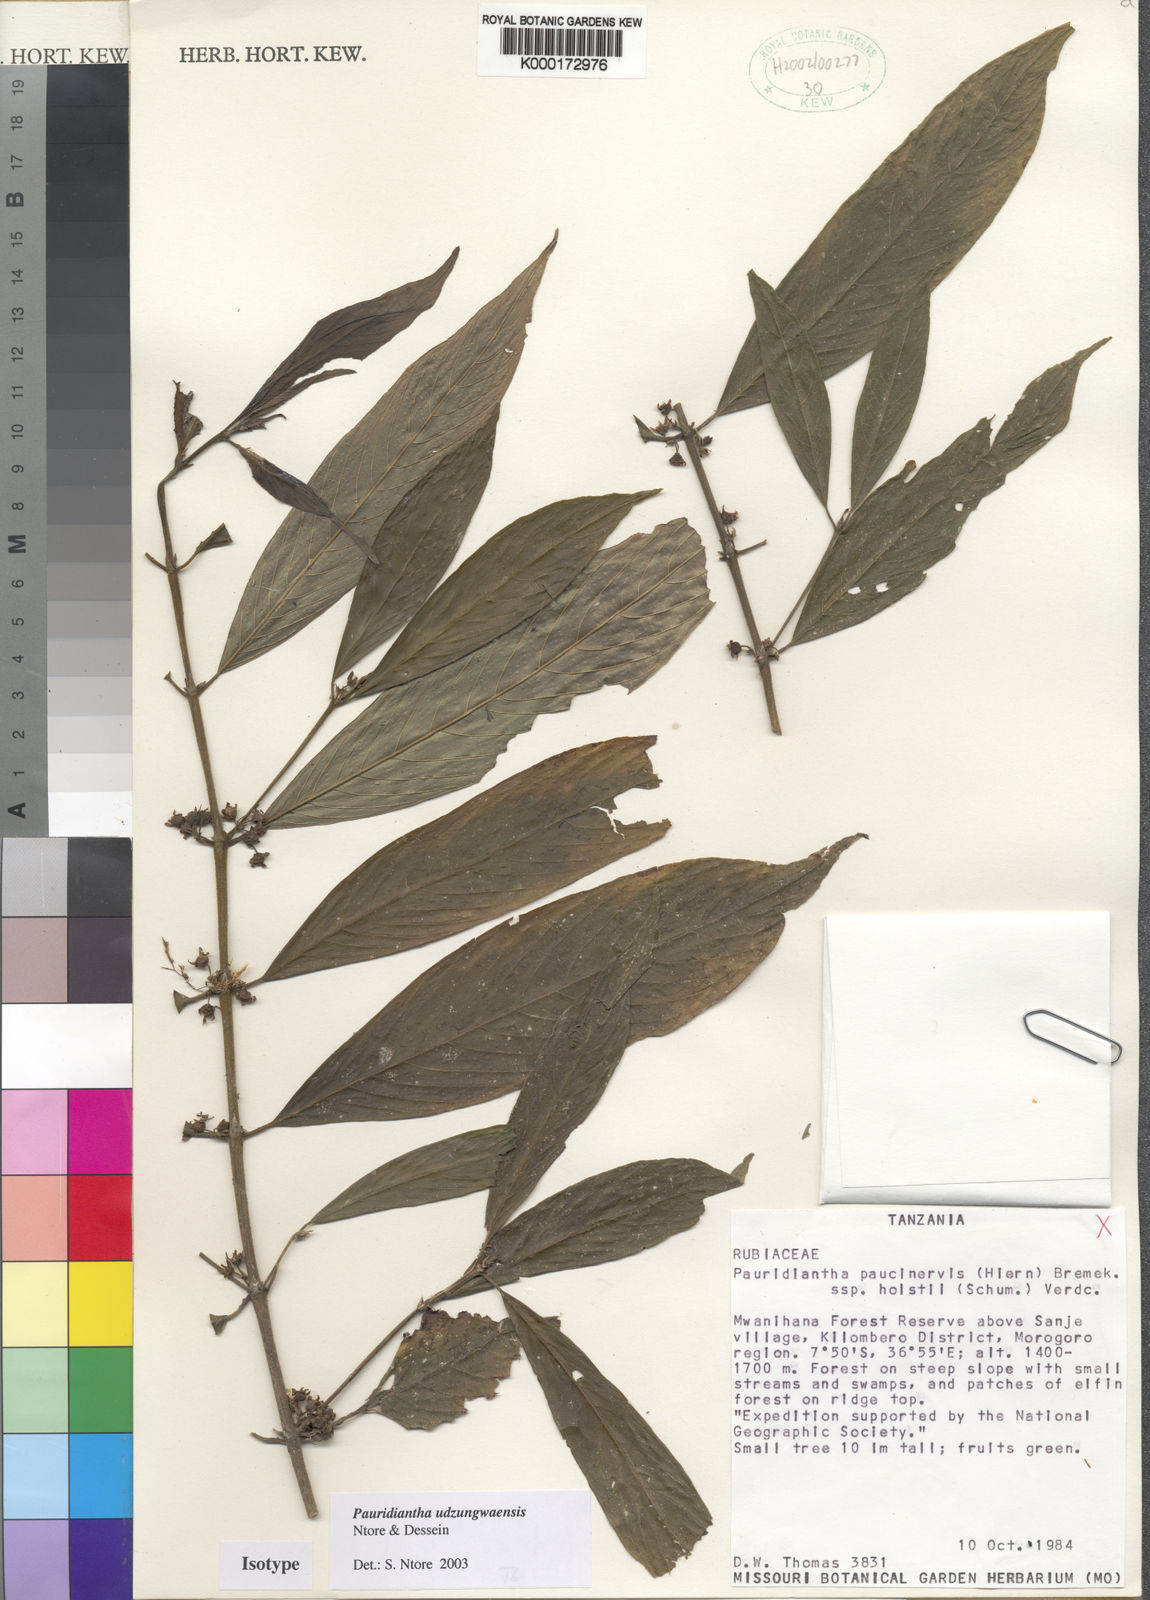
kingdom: Plantae
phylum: Tracheophyta
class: Magnoliopsida
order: Gentianales
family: Rubiaceae
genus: Pauridiantha
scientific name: Pauridiantha udzungwaensis
